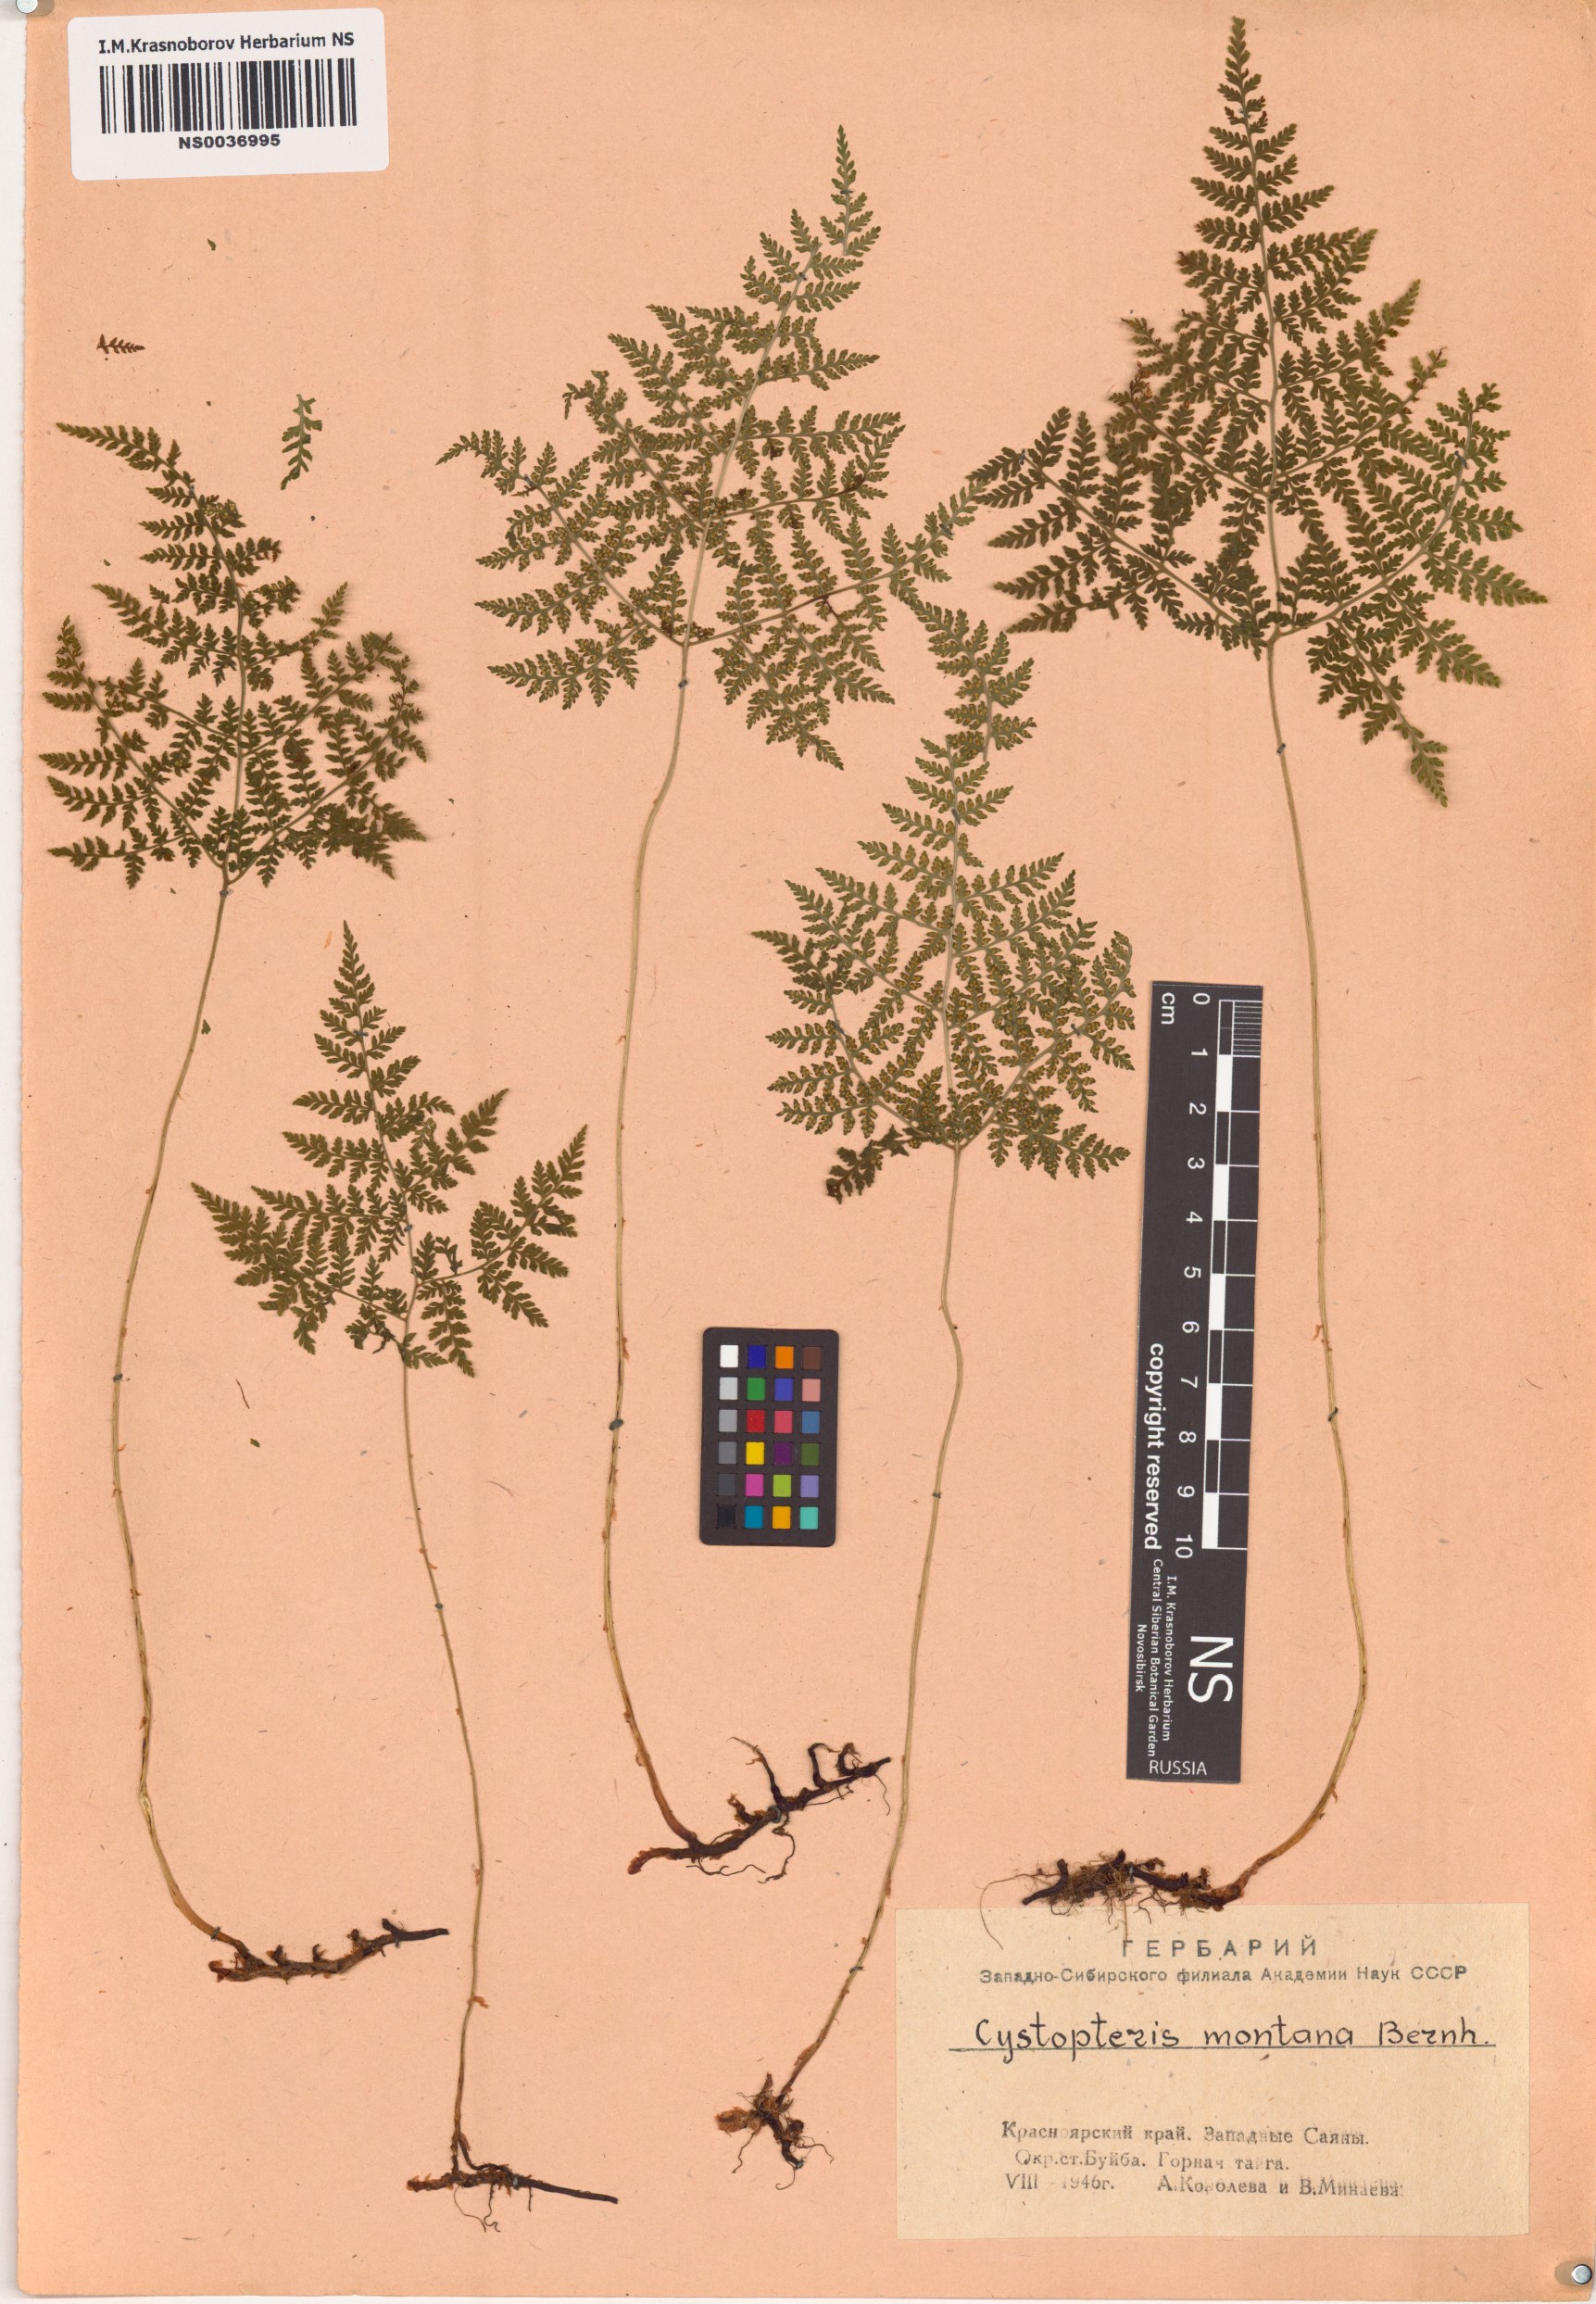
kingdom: Plantae
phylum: Tracheophyta
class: Polypodiopsida
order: Polypodiales
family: Cystopteridaceae
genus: Cystopteris
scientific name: Cystopteris montana
